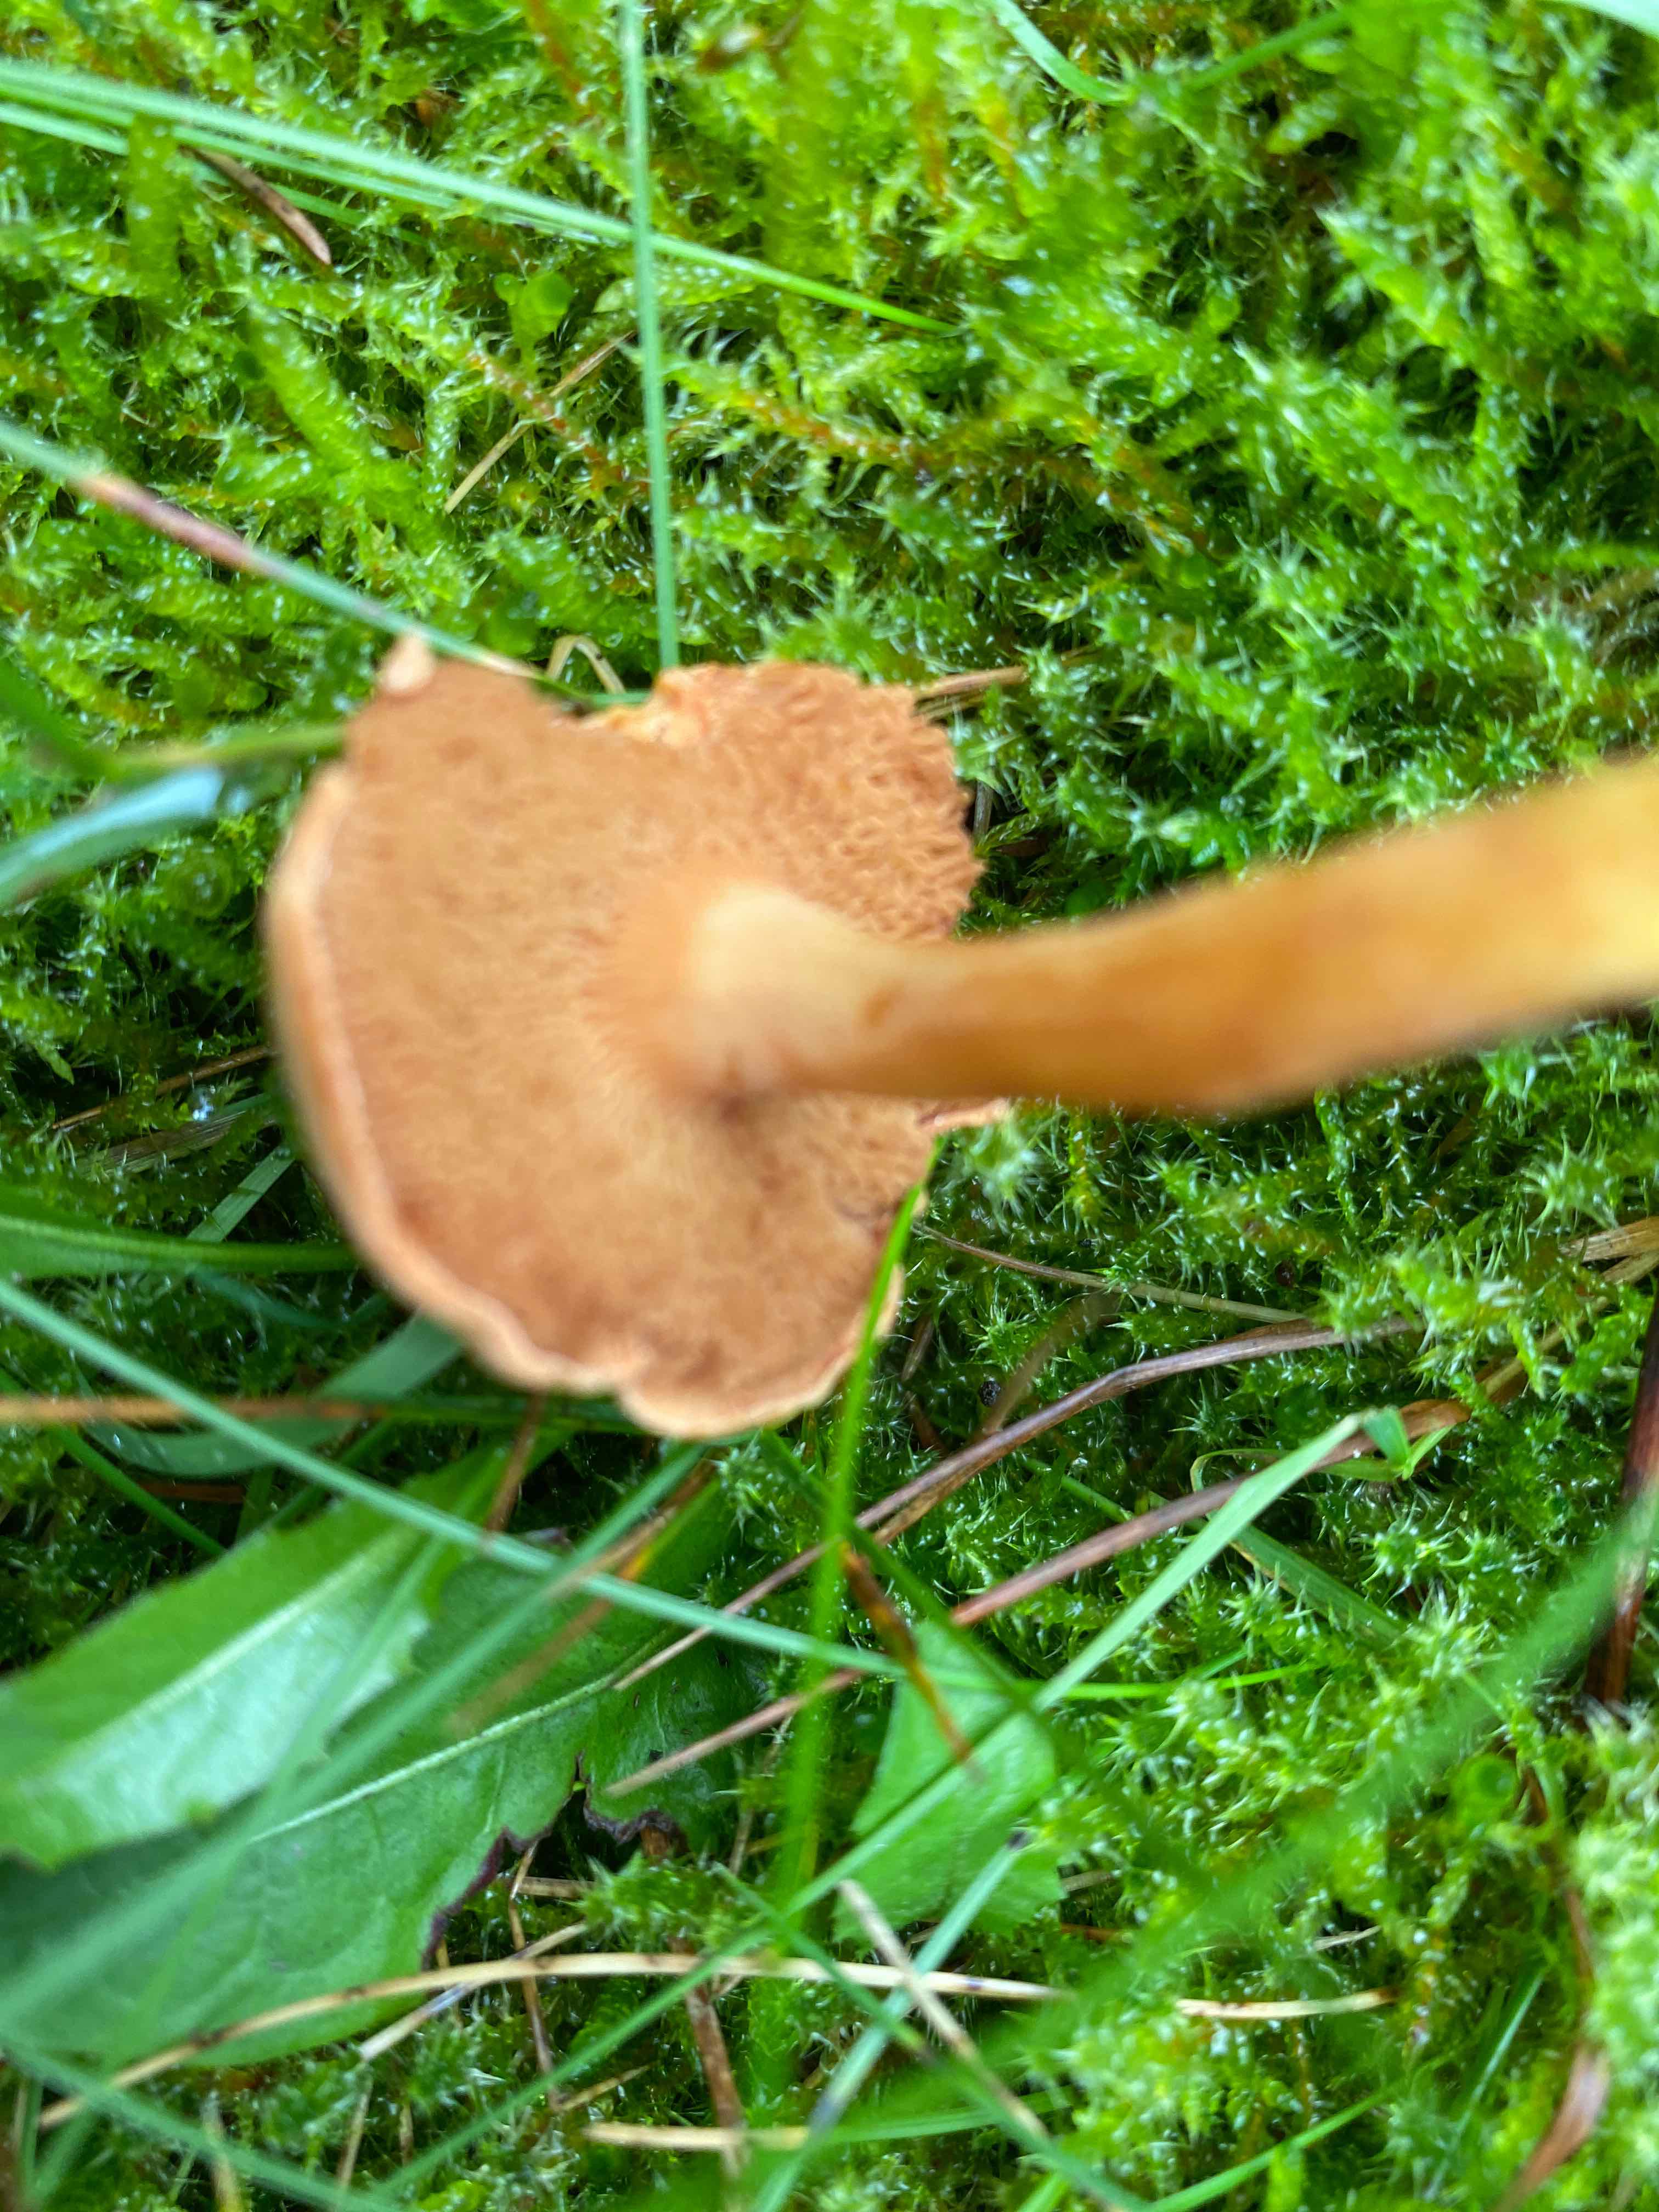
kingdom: Fungi
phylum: Basidiomycota
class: Agaricomycetes
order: Boletales
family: Boletaceae
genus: Chalciporus
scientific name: Chalciporus piperatus
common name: peberrørhat
